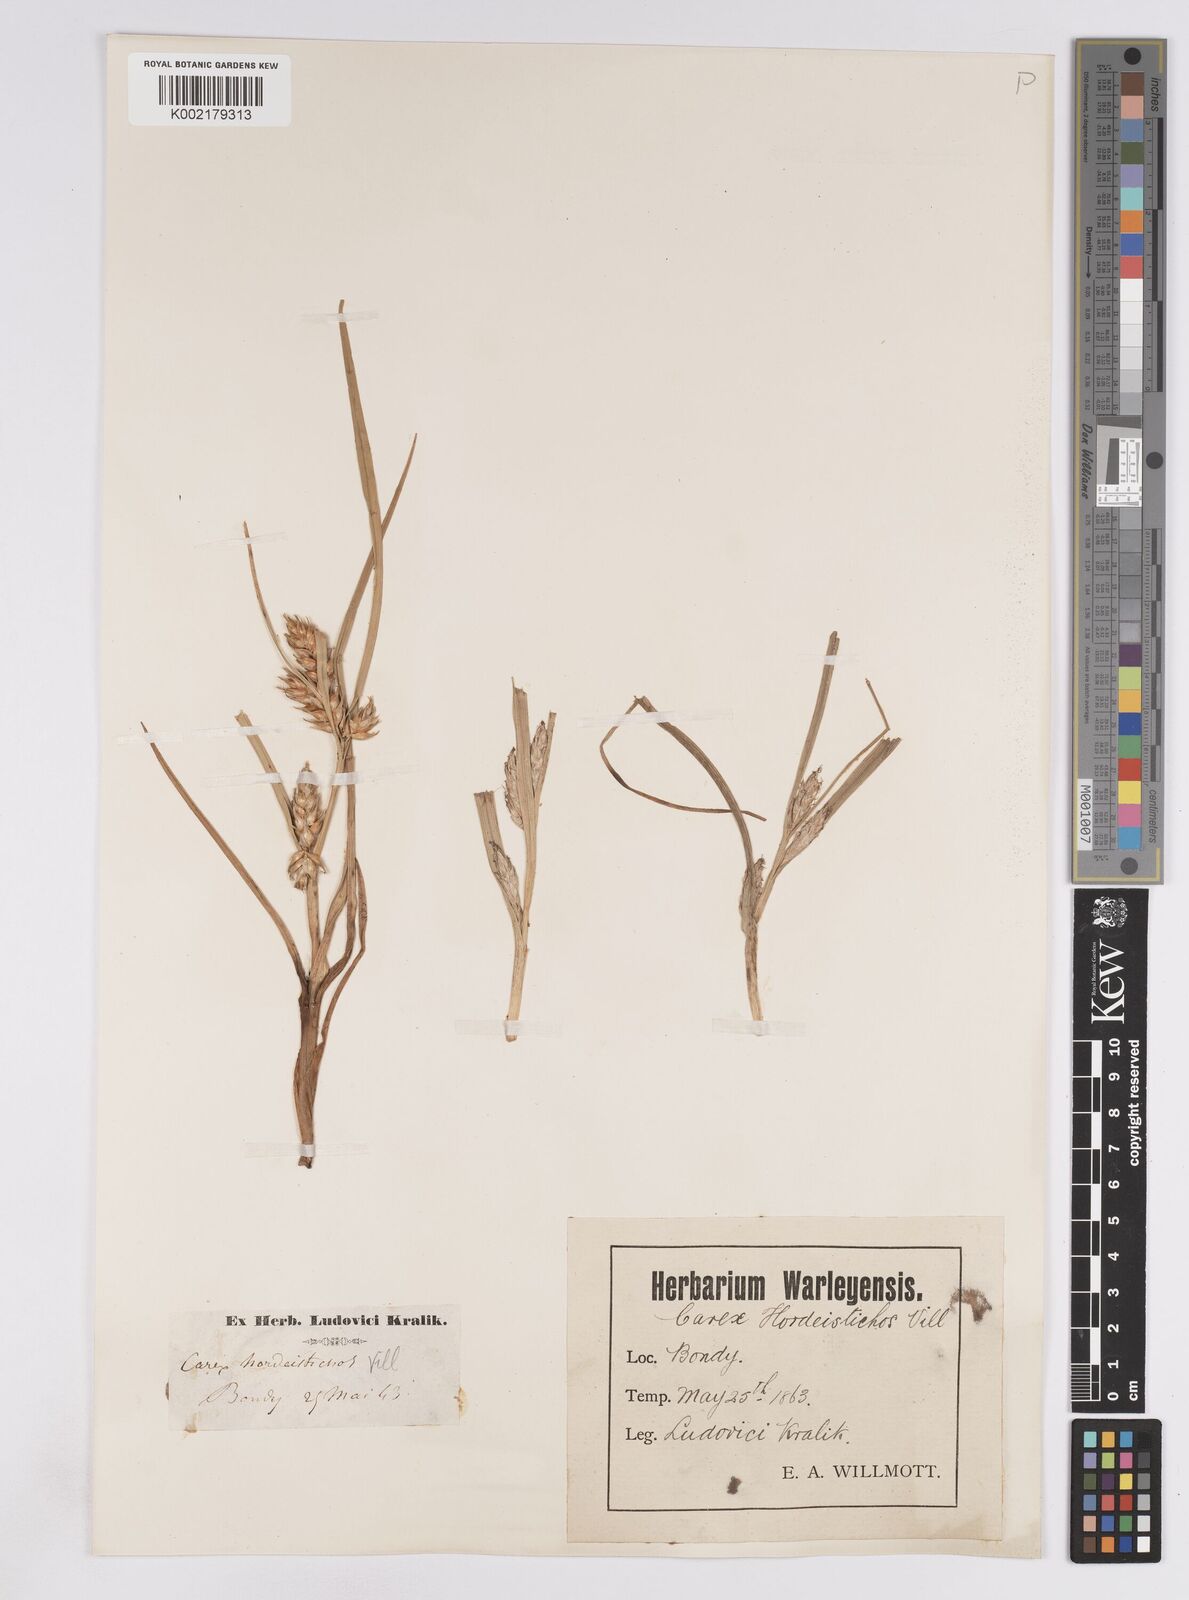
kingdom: Plantae
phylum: Tracheophyta
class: Liliopsida
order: Poales
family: Cyperaceae
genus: Carex
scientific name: Carex hordeistichos
